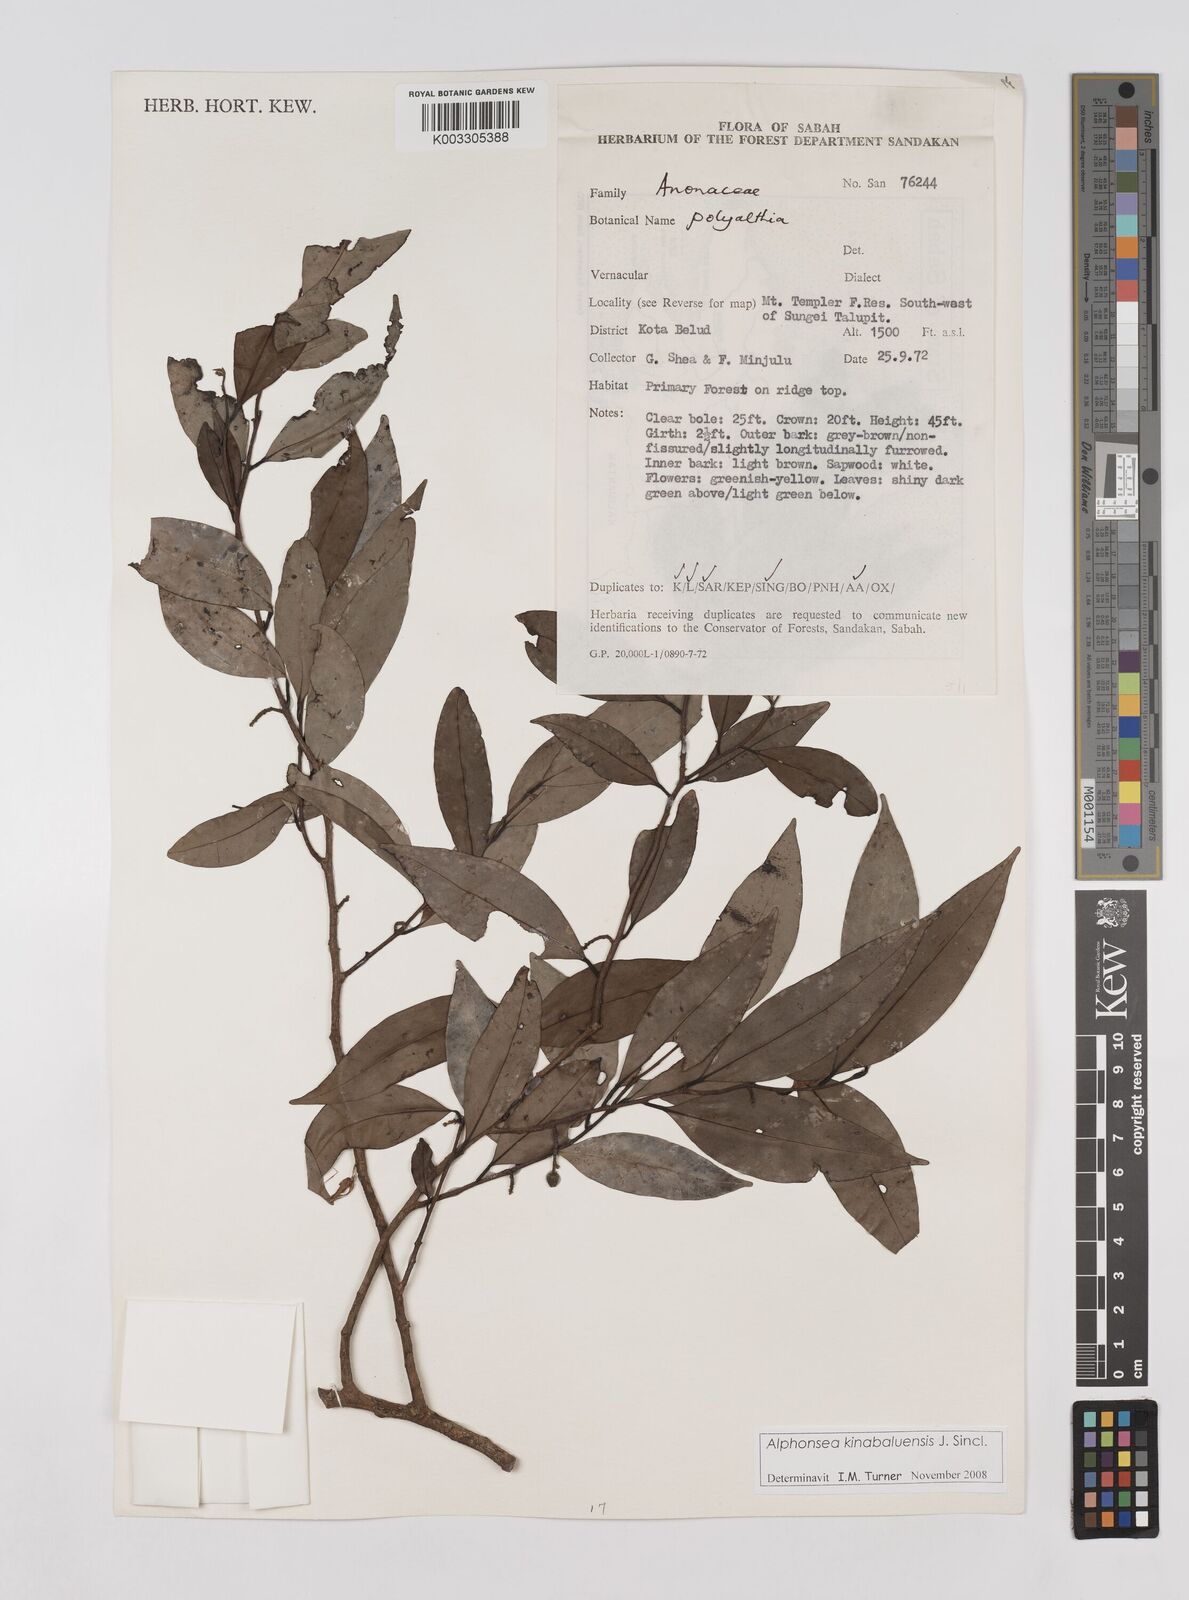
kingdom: Plantae
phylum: Tracheophyta
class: Magnoliopsida
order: Magnoliales
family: Annonaceae
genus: Alphonsea
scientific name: Alphonsea kinabaluensis
